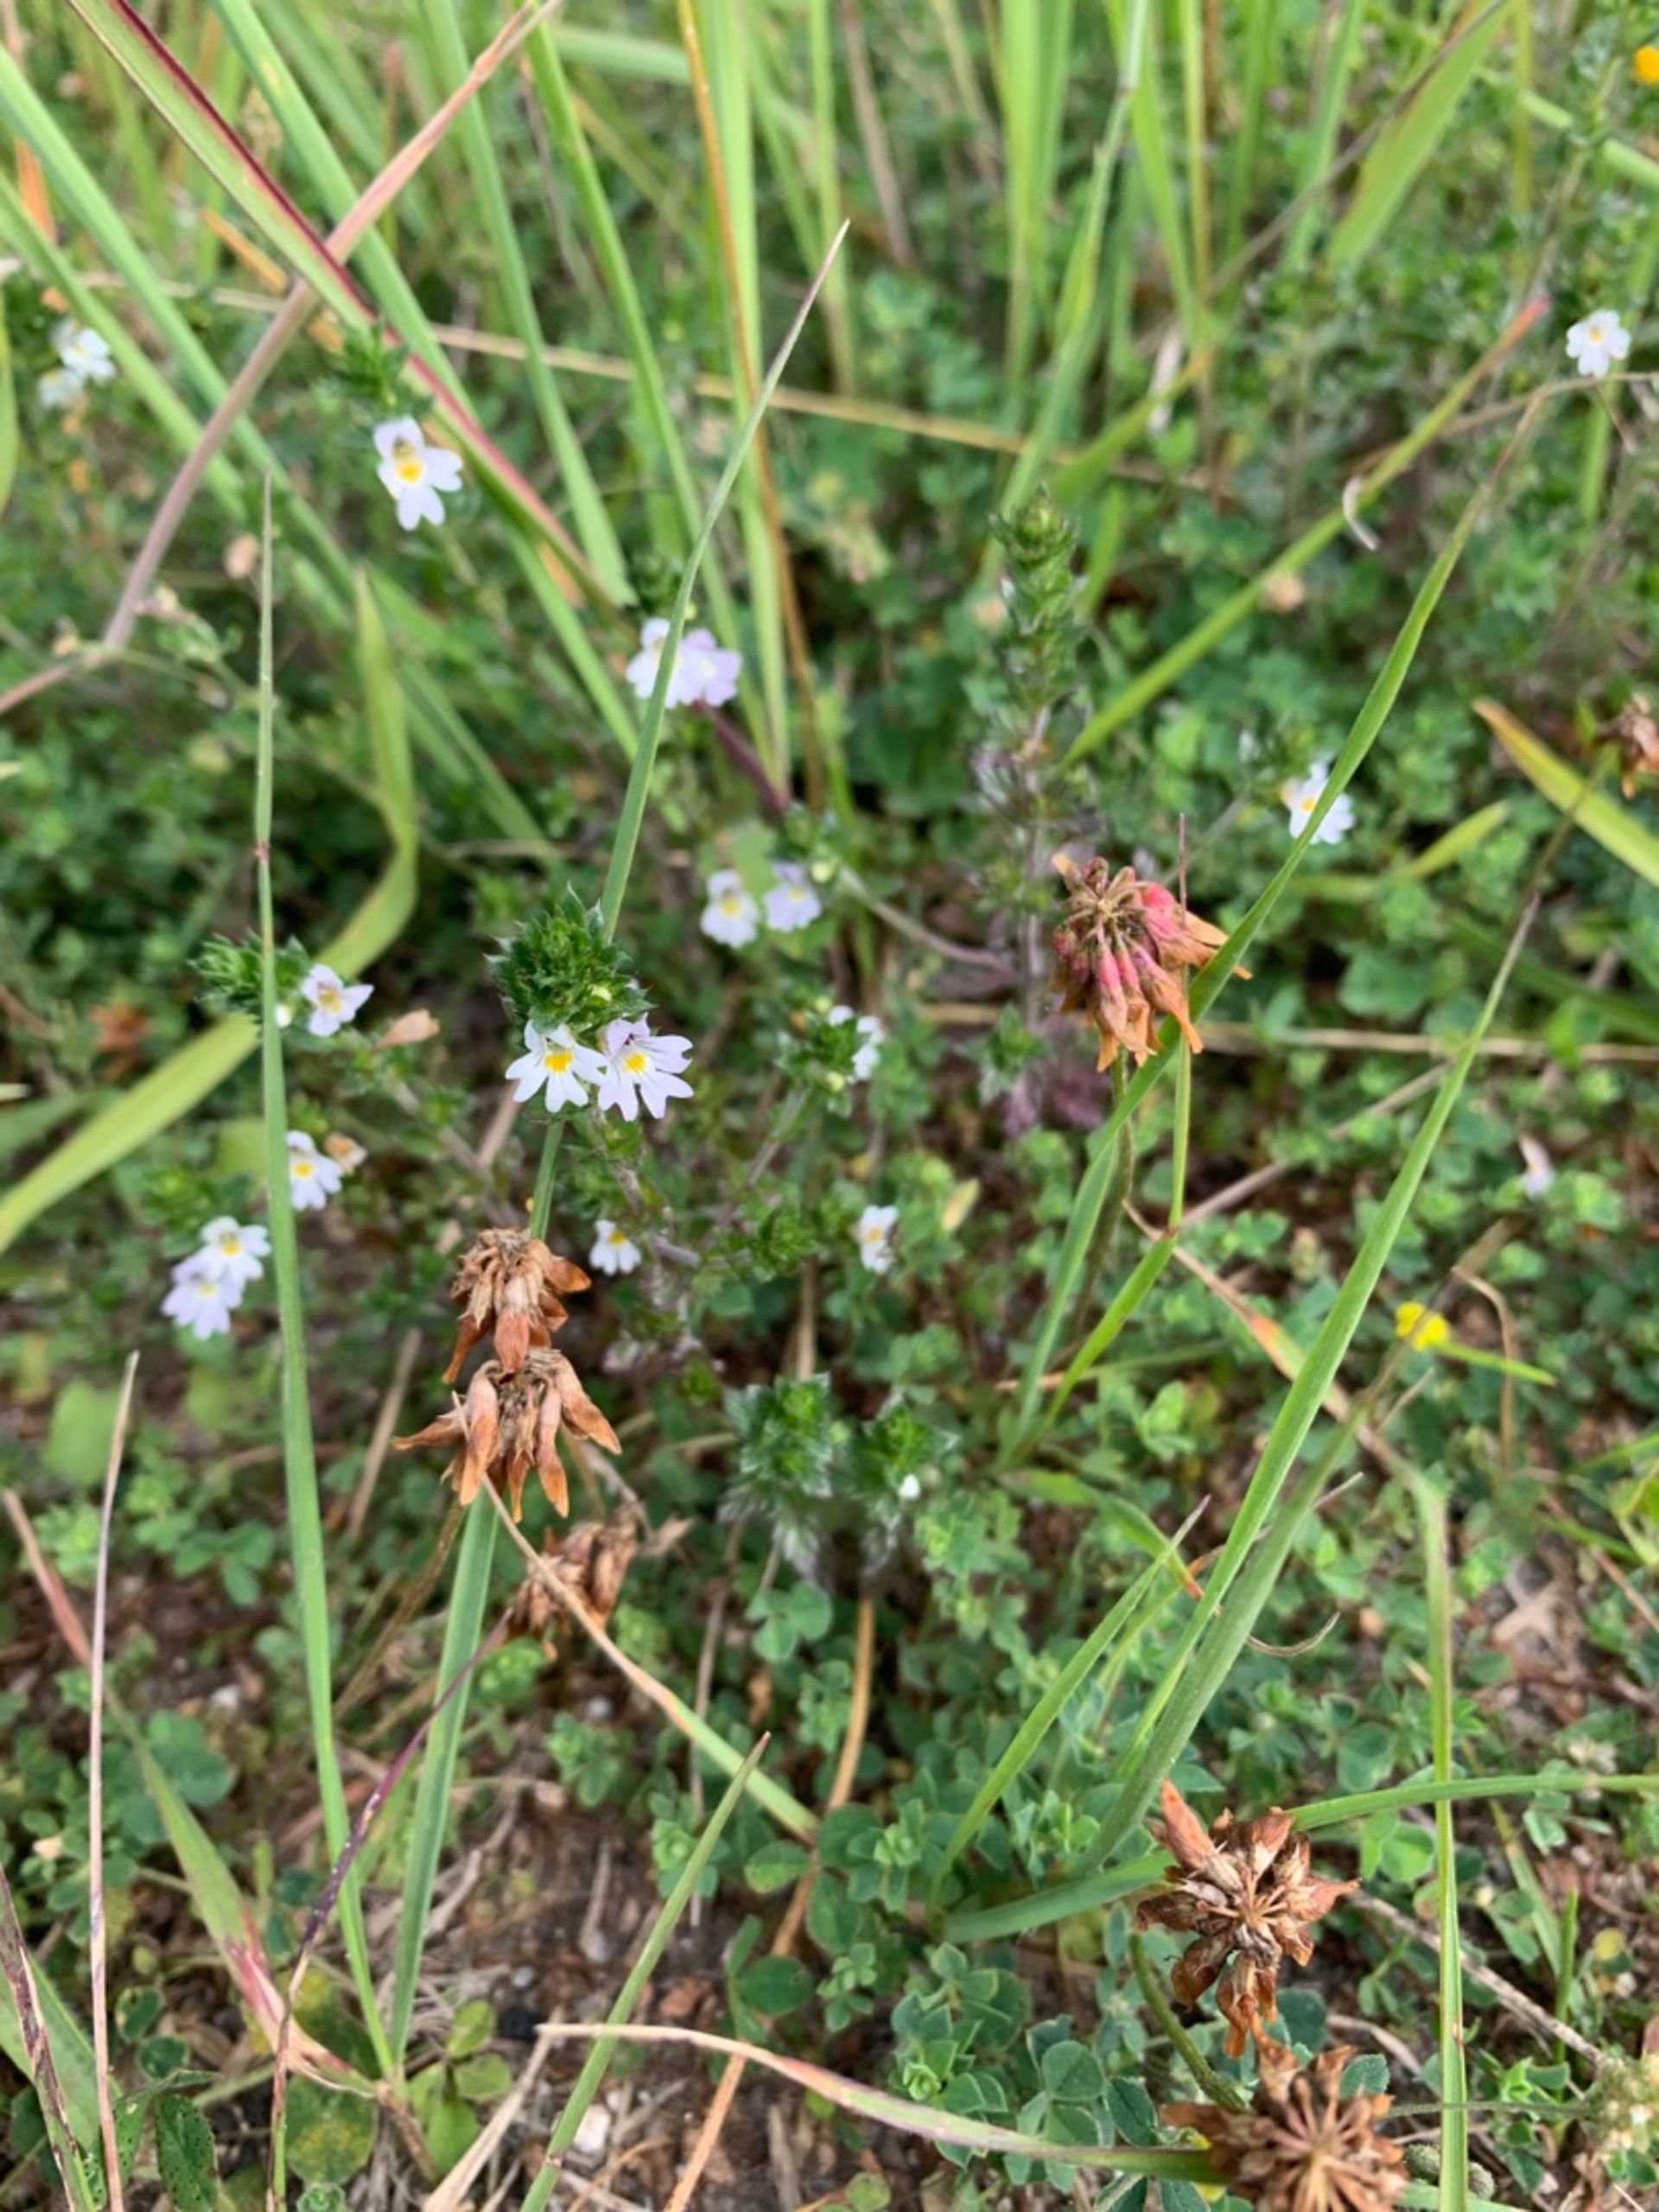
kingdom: Plantae
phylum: Tracheophyta
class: Magnoliopsida
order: Lamiales
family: Orobanchaceae
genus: Euphrasia
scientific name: Euphrasia stricta
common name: Spids øjentrøst
